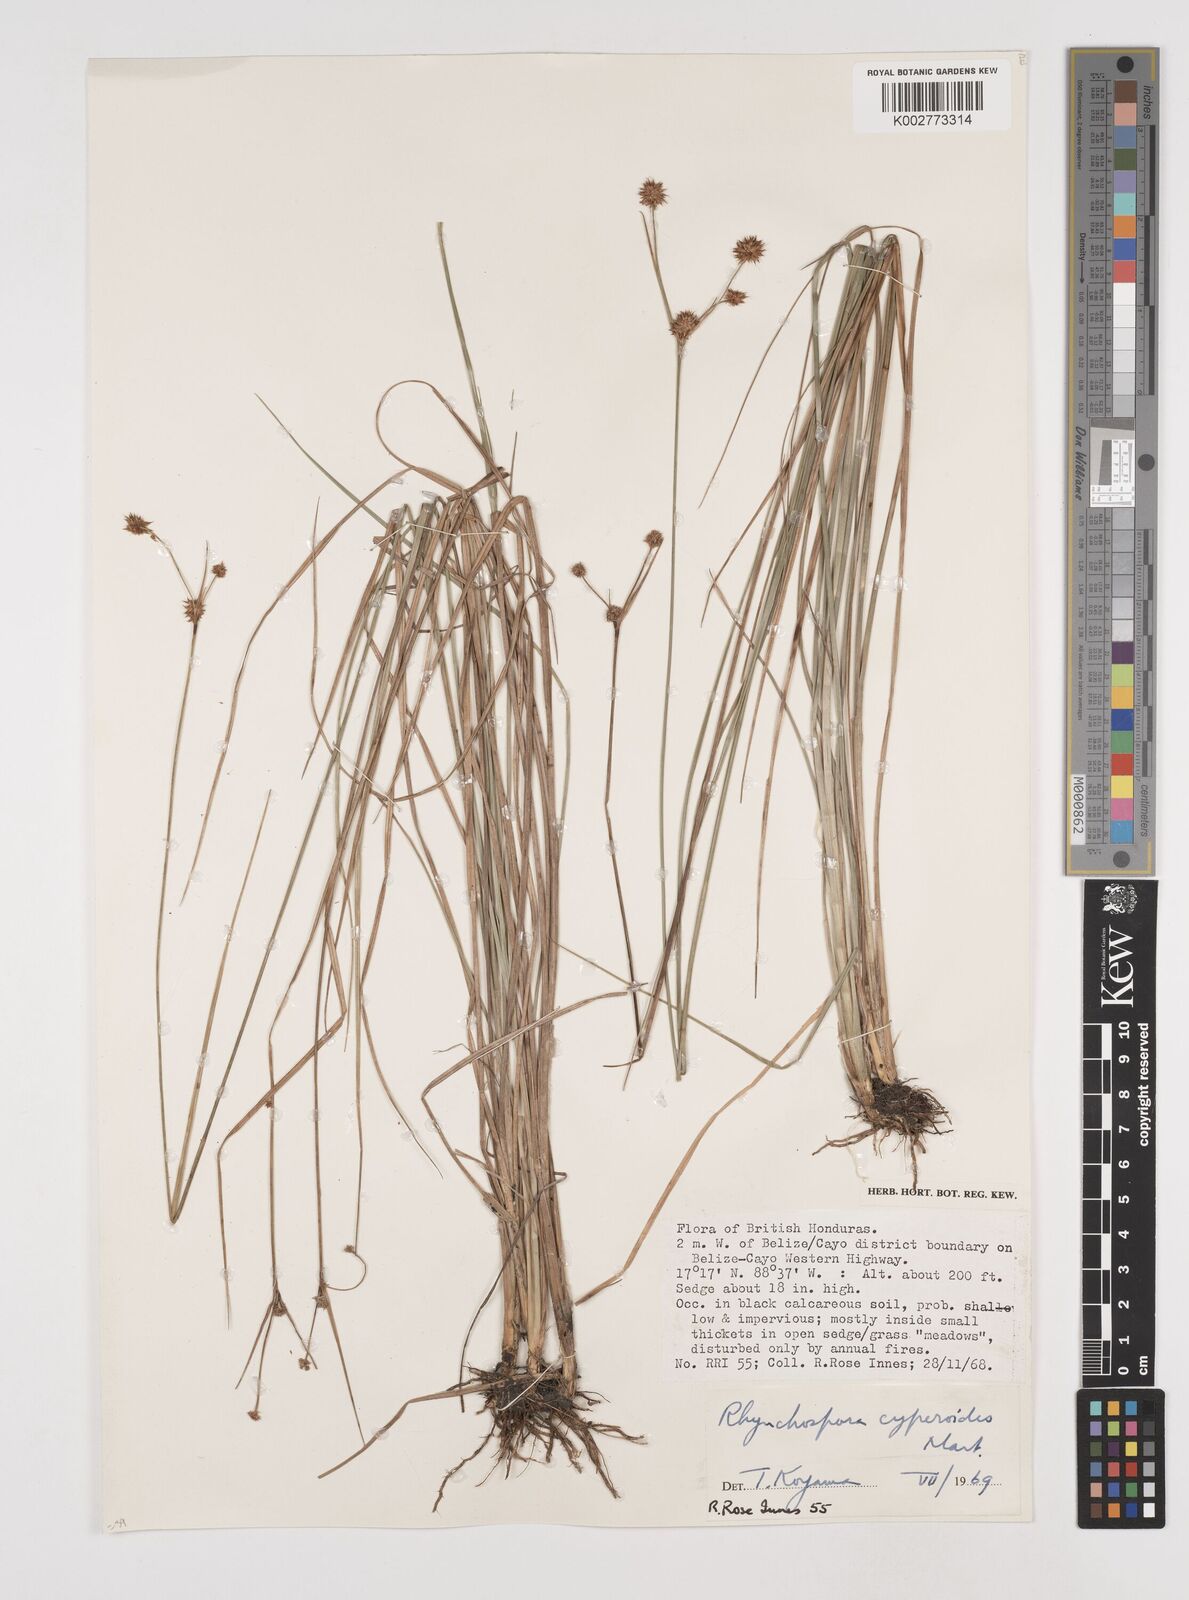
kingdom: Plantae
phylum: Tracheophyta
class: Liliopsida
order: Poales
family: Cyperaceae
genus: Rhynchospora
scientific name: Rhynchospora holoschoenoides
